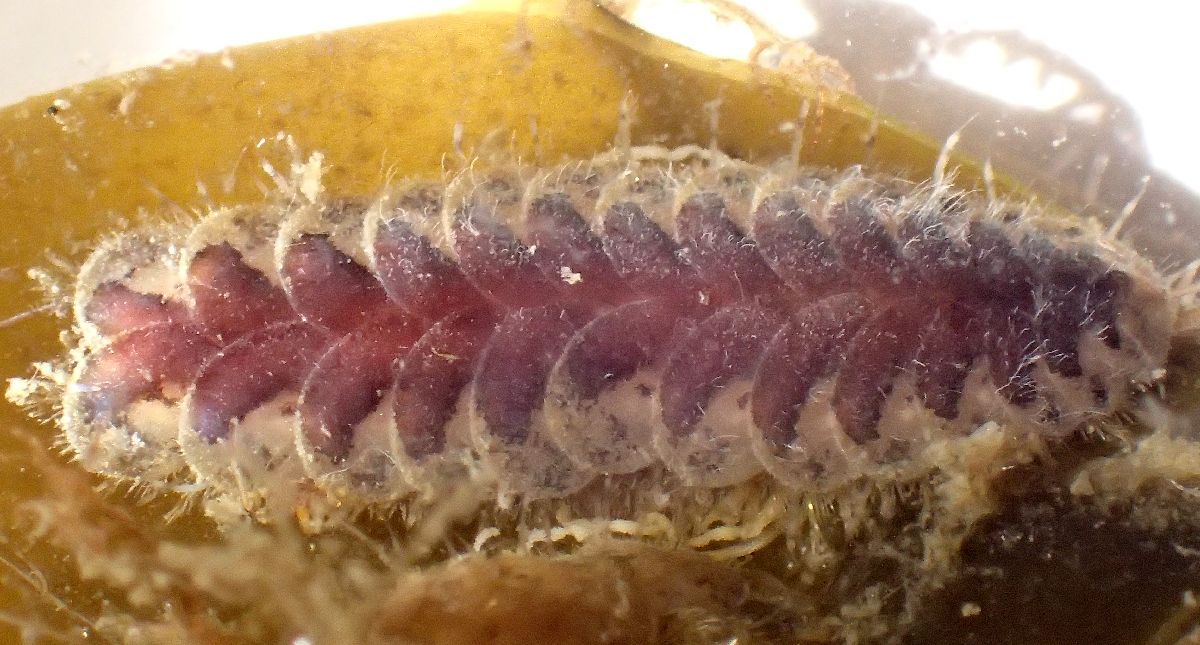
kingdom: Animalia
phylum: Annelida
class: Polychaeta
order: Phyllodocida
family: Polynoidae
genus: Harmothoe
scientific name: Harmothoe imbricata
